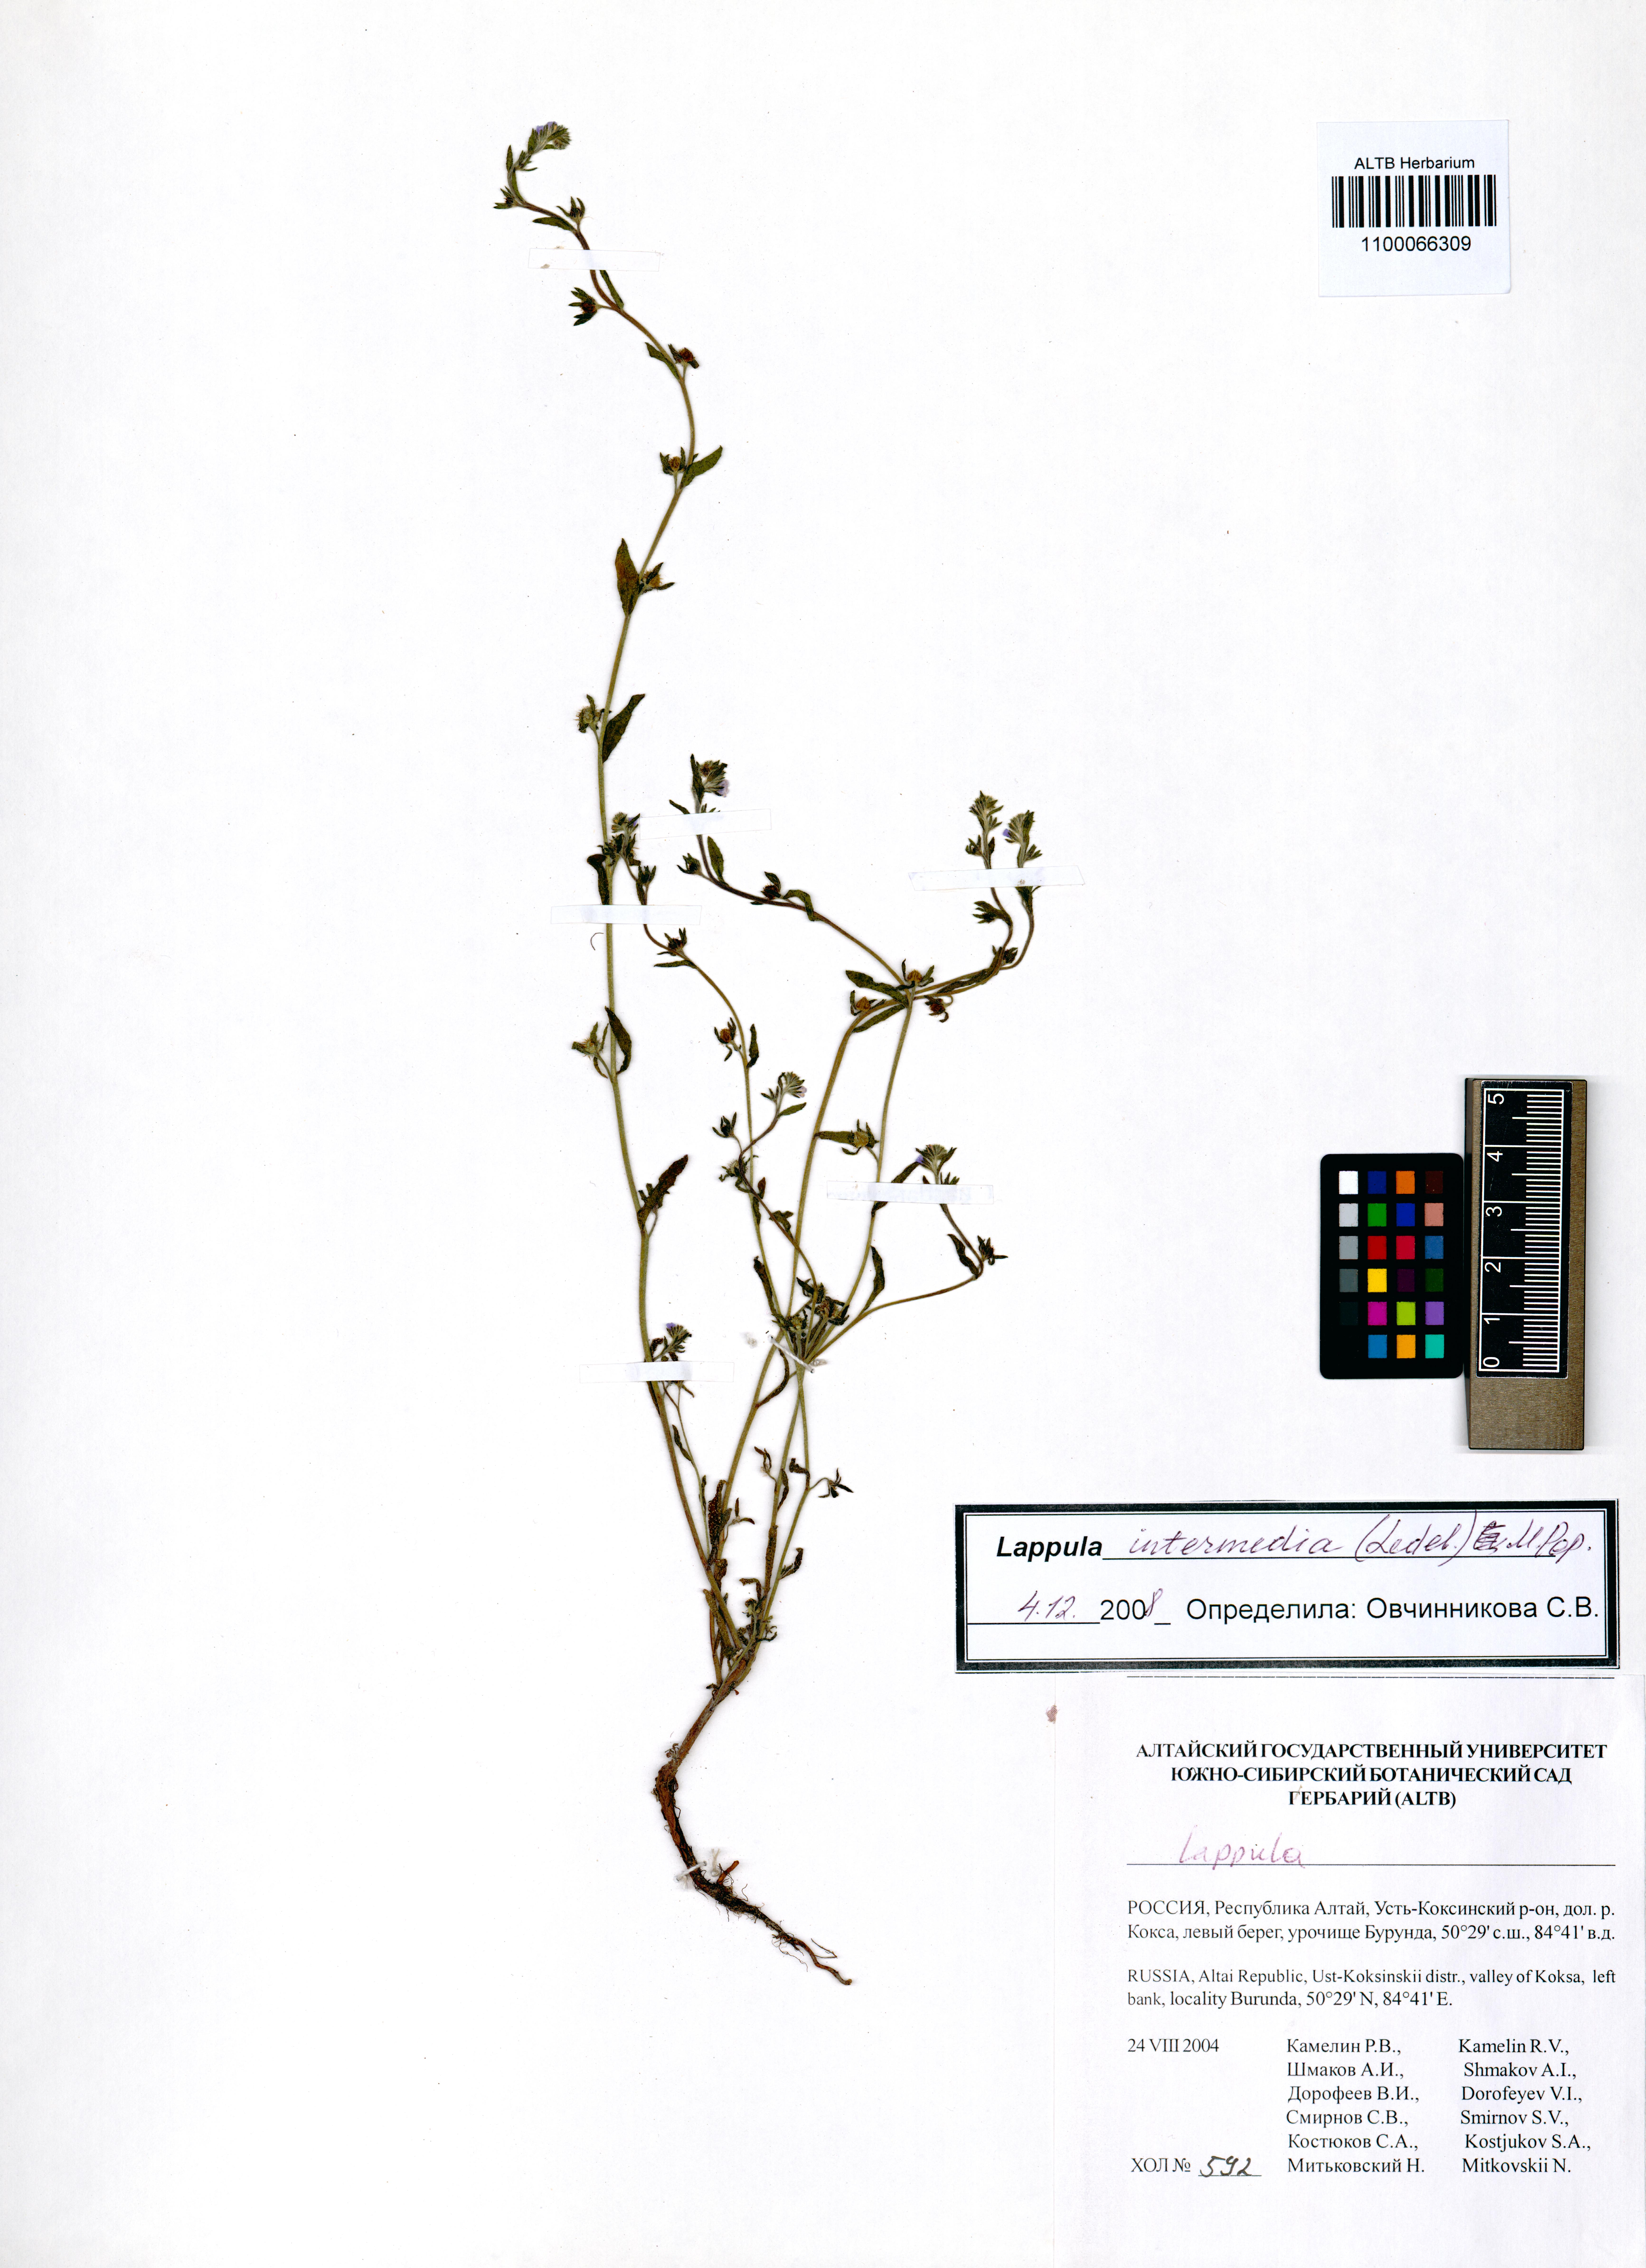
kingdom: Plantae
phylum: Tracheophyta
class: Magnoliopsida
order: Boraginales
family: Boraginaceae
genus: Lappula
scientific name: Lappula intermedia
